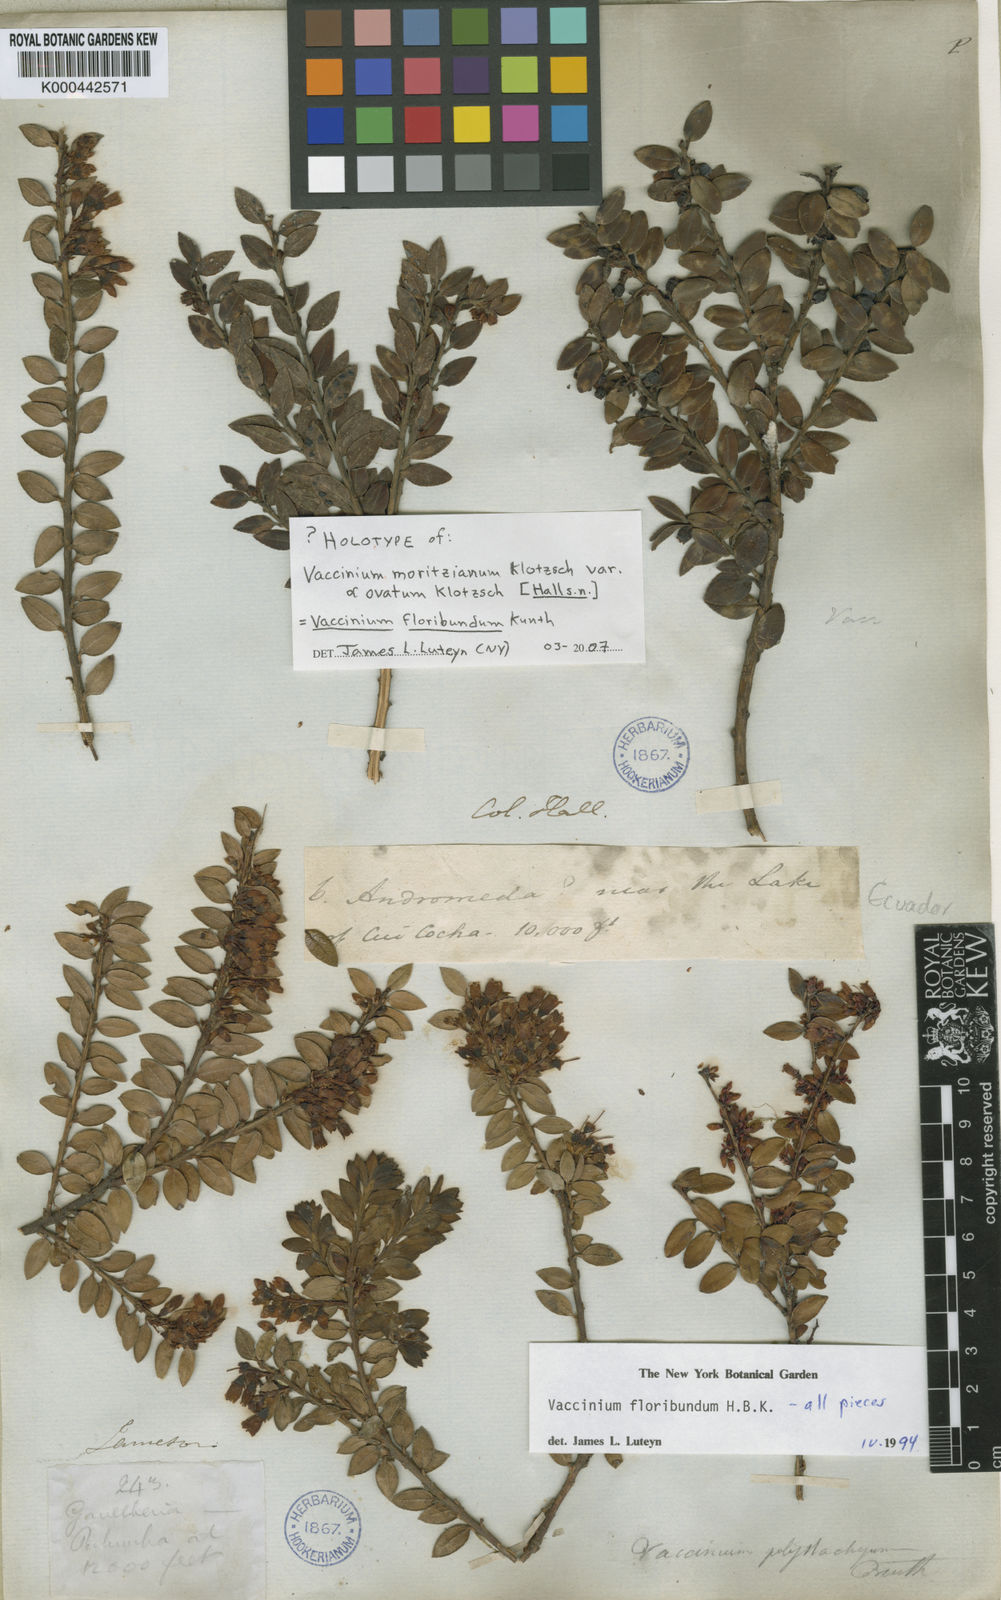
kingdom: Plantae
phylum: Tracheophyta
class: Magnoliopsida
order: Ericales
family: Ericaceae
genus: Vaccinium
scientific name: Vaccinium floribundum
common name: Colombian blueberry
